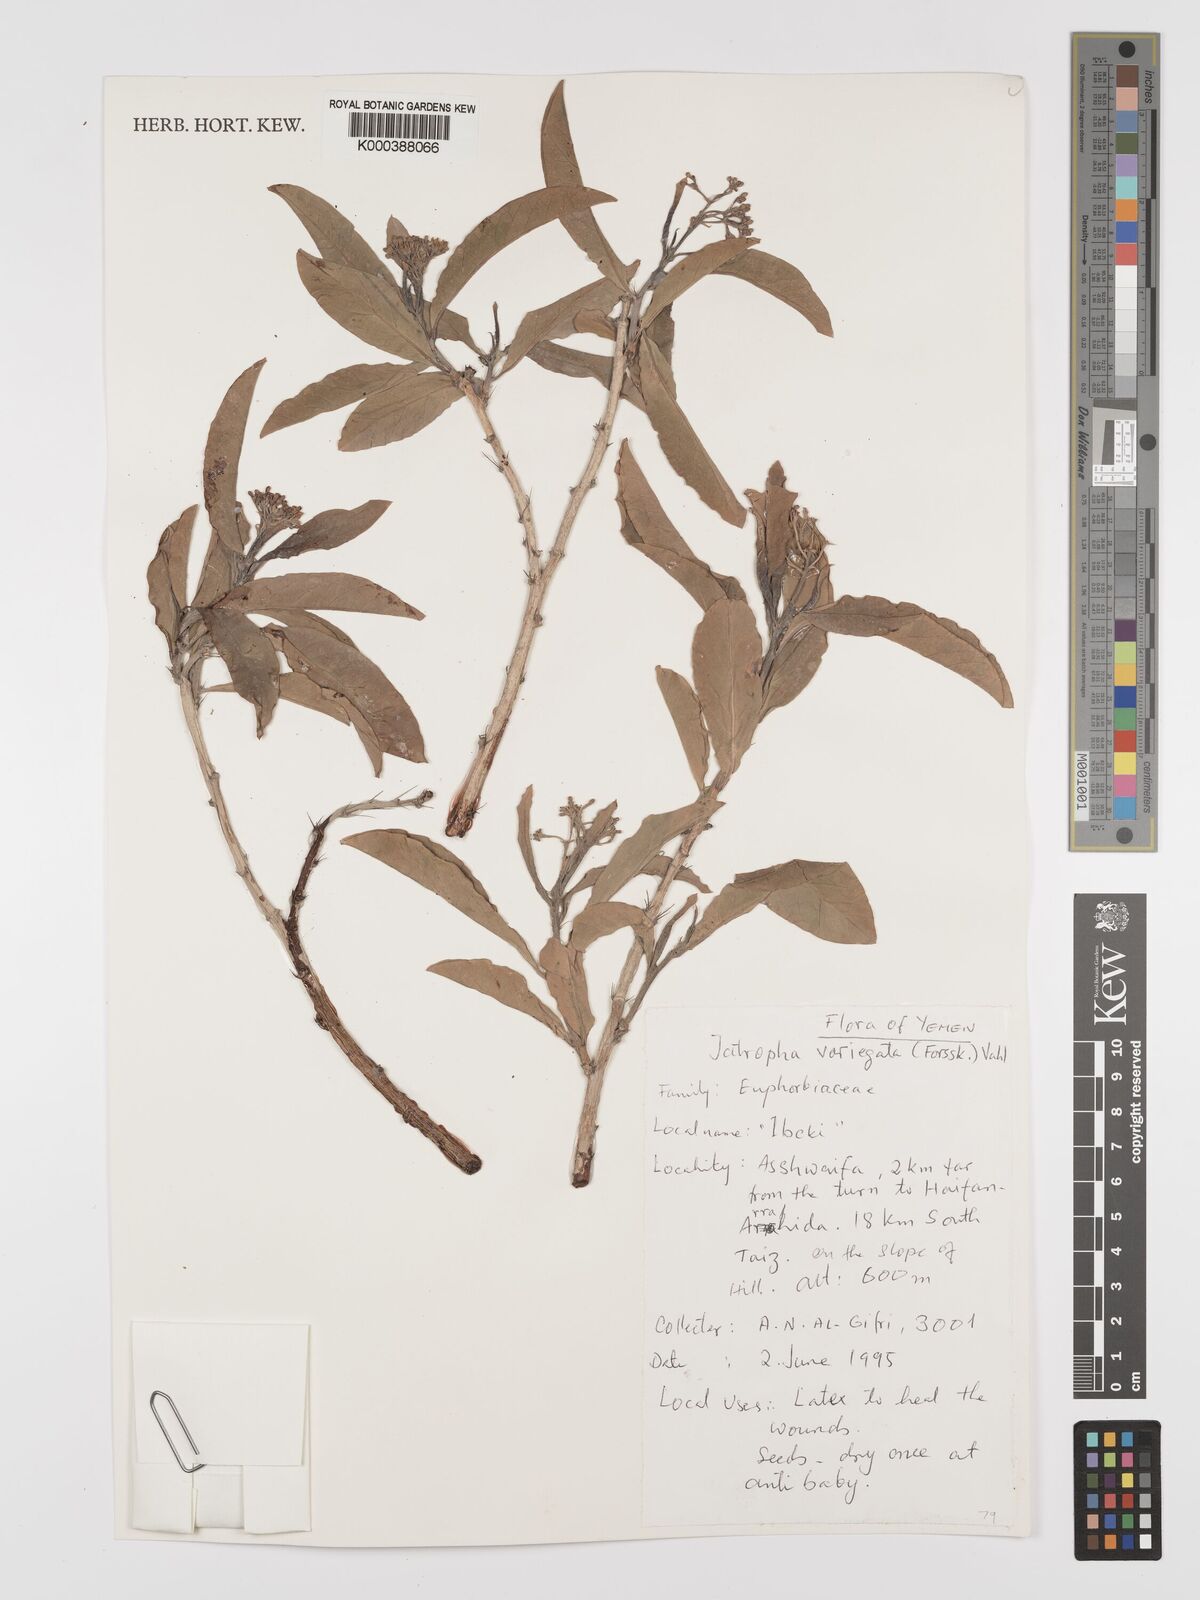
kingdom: Plantae
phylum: Tracheophyta
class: Magnoliopsida
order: Malpighiales
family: Euphorbiaceae
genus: Jatropha
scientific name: Jatropha variegata
